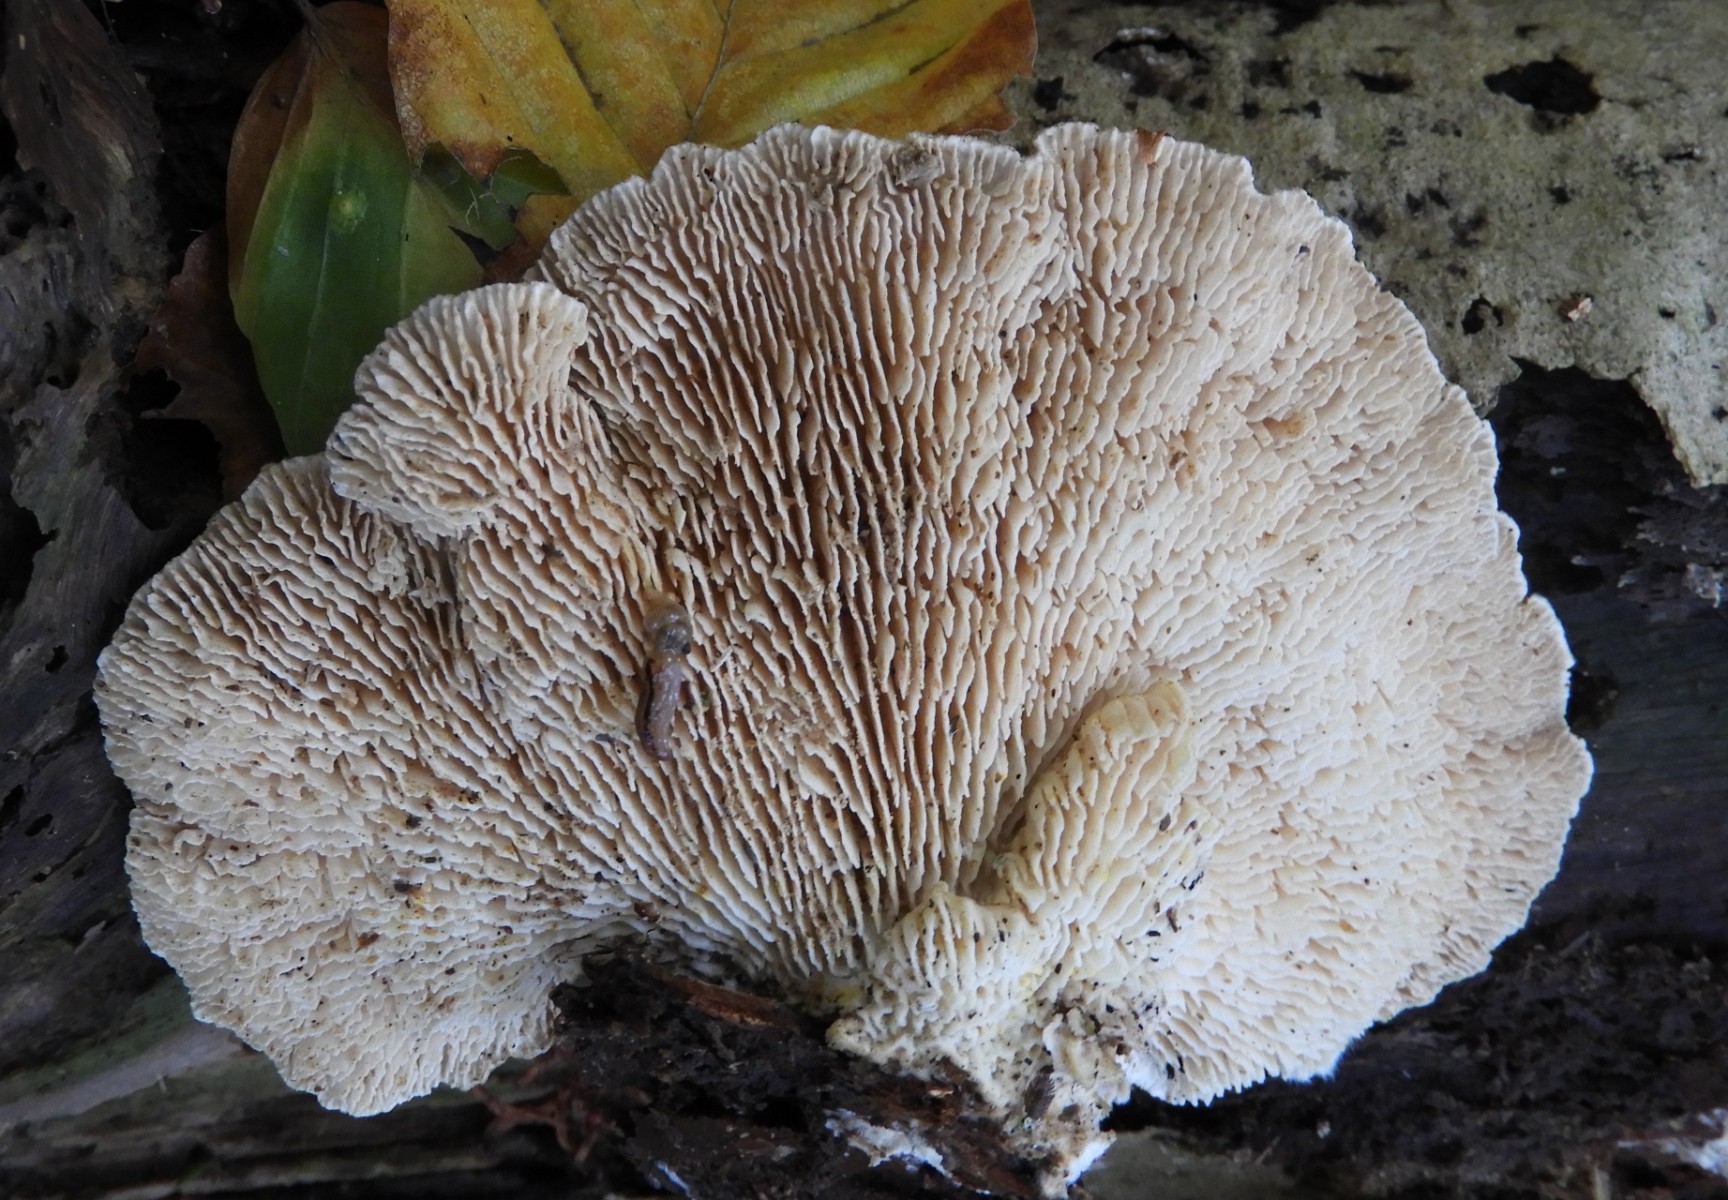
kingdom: Fungi
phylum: Basidiomycota
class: Agaricomycetes
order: Polyporales
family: Polyporaceae
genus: Lenzites
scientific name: Lenzites betulinus
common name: birke-læderporesvamp
